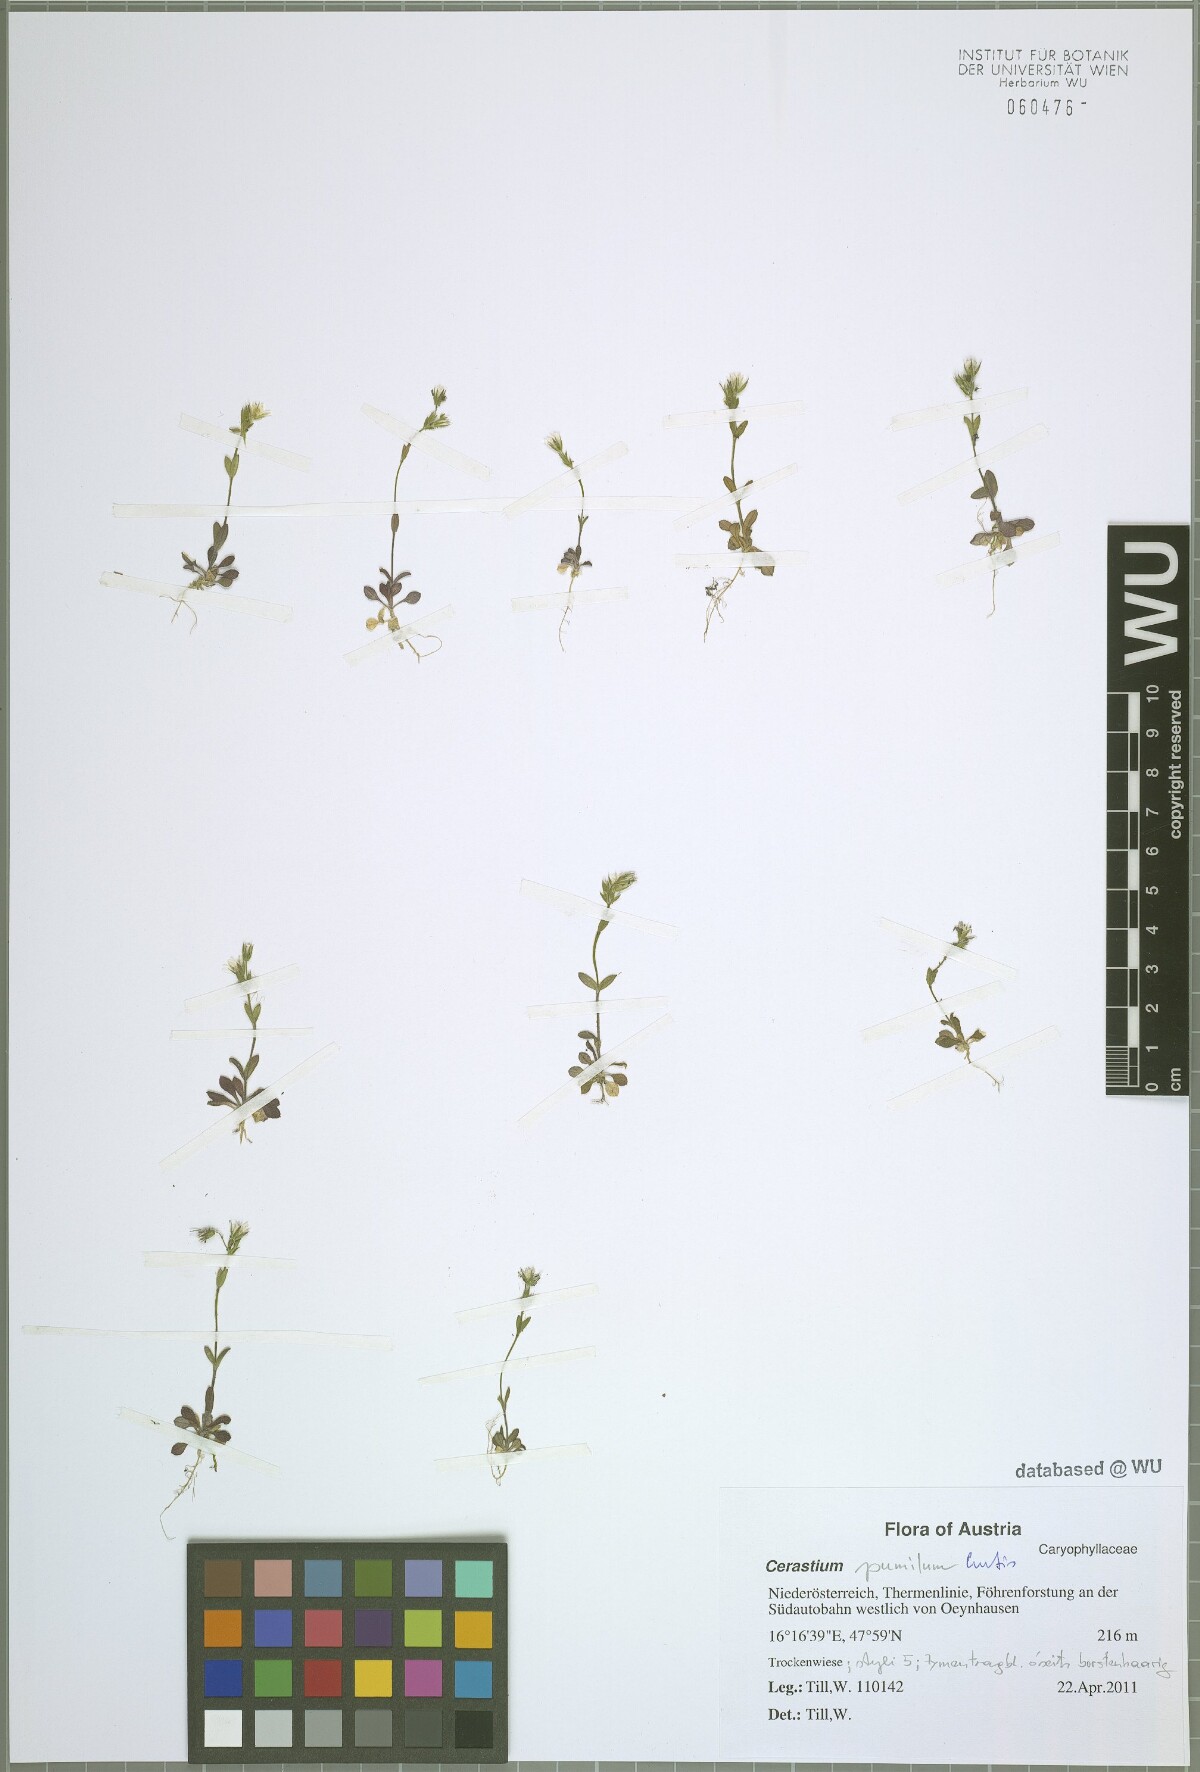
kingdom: Plantae
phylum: Tracheophyta
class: Magnoliopsida
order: Caryophyllales
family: Caryophyllaceae
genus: Cerastium
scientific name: Cerastium pumilum
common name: Dwarf mouse-ear
